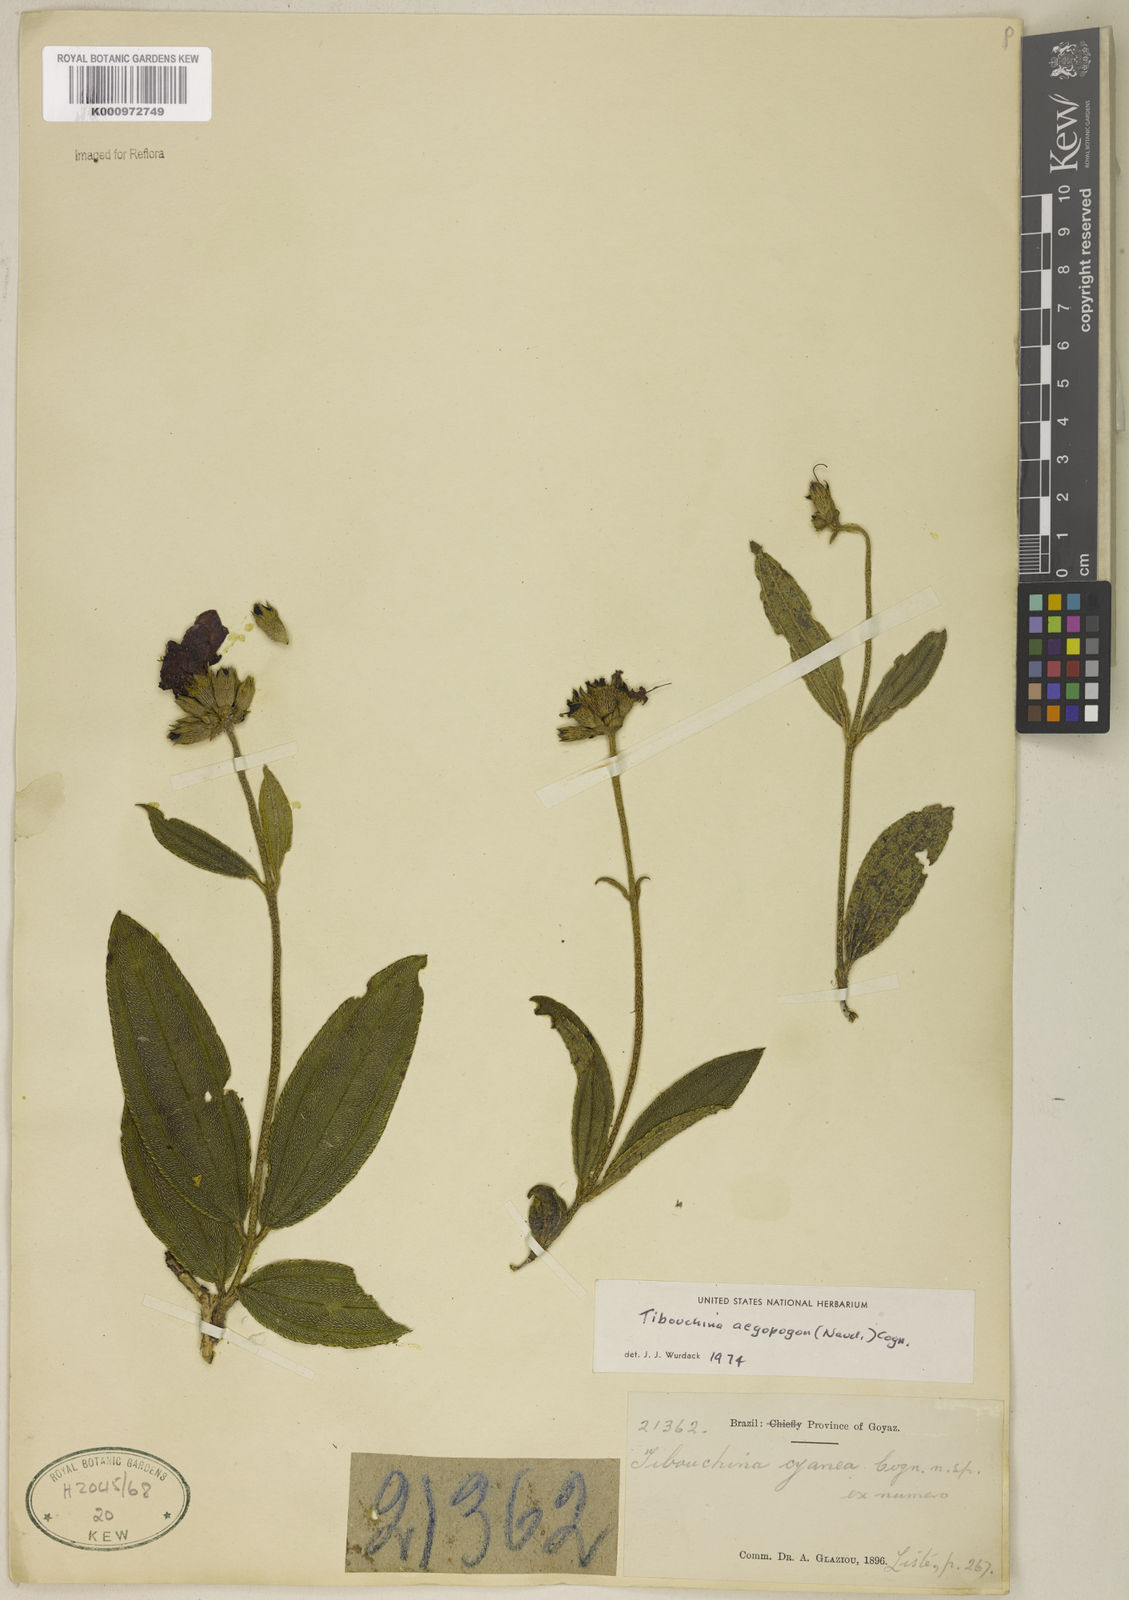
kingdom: Plantae
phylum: Tracheophyta
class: Magnoliopsida
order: Myrtales
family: Melastomataceae
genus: Pleroma
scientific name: Pleroma aegopogon
